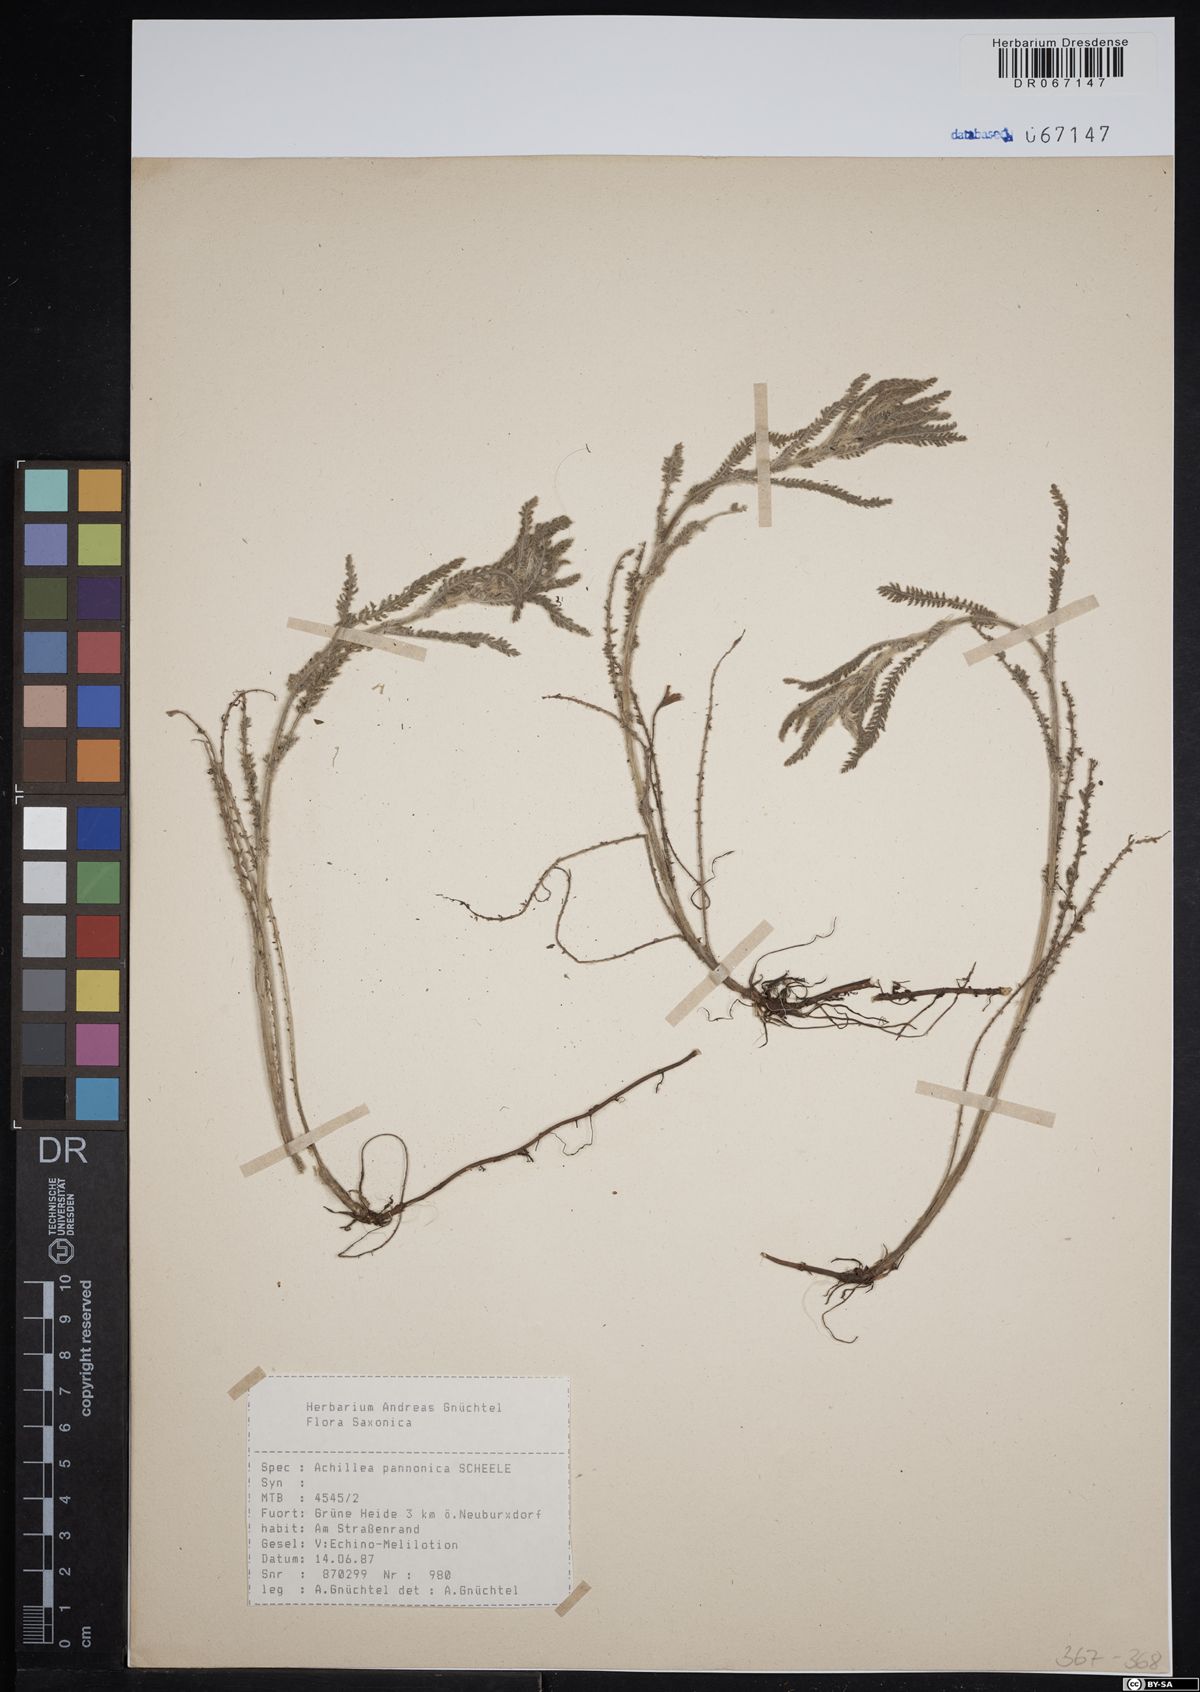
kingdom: Plantae
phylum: Tracheophyta
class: Magnoliopsida
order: Asterales
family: Asteraceae
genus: Achillea
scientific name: Achillea pannonica
